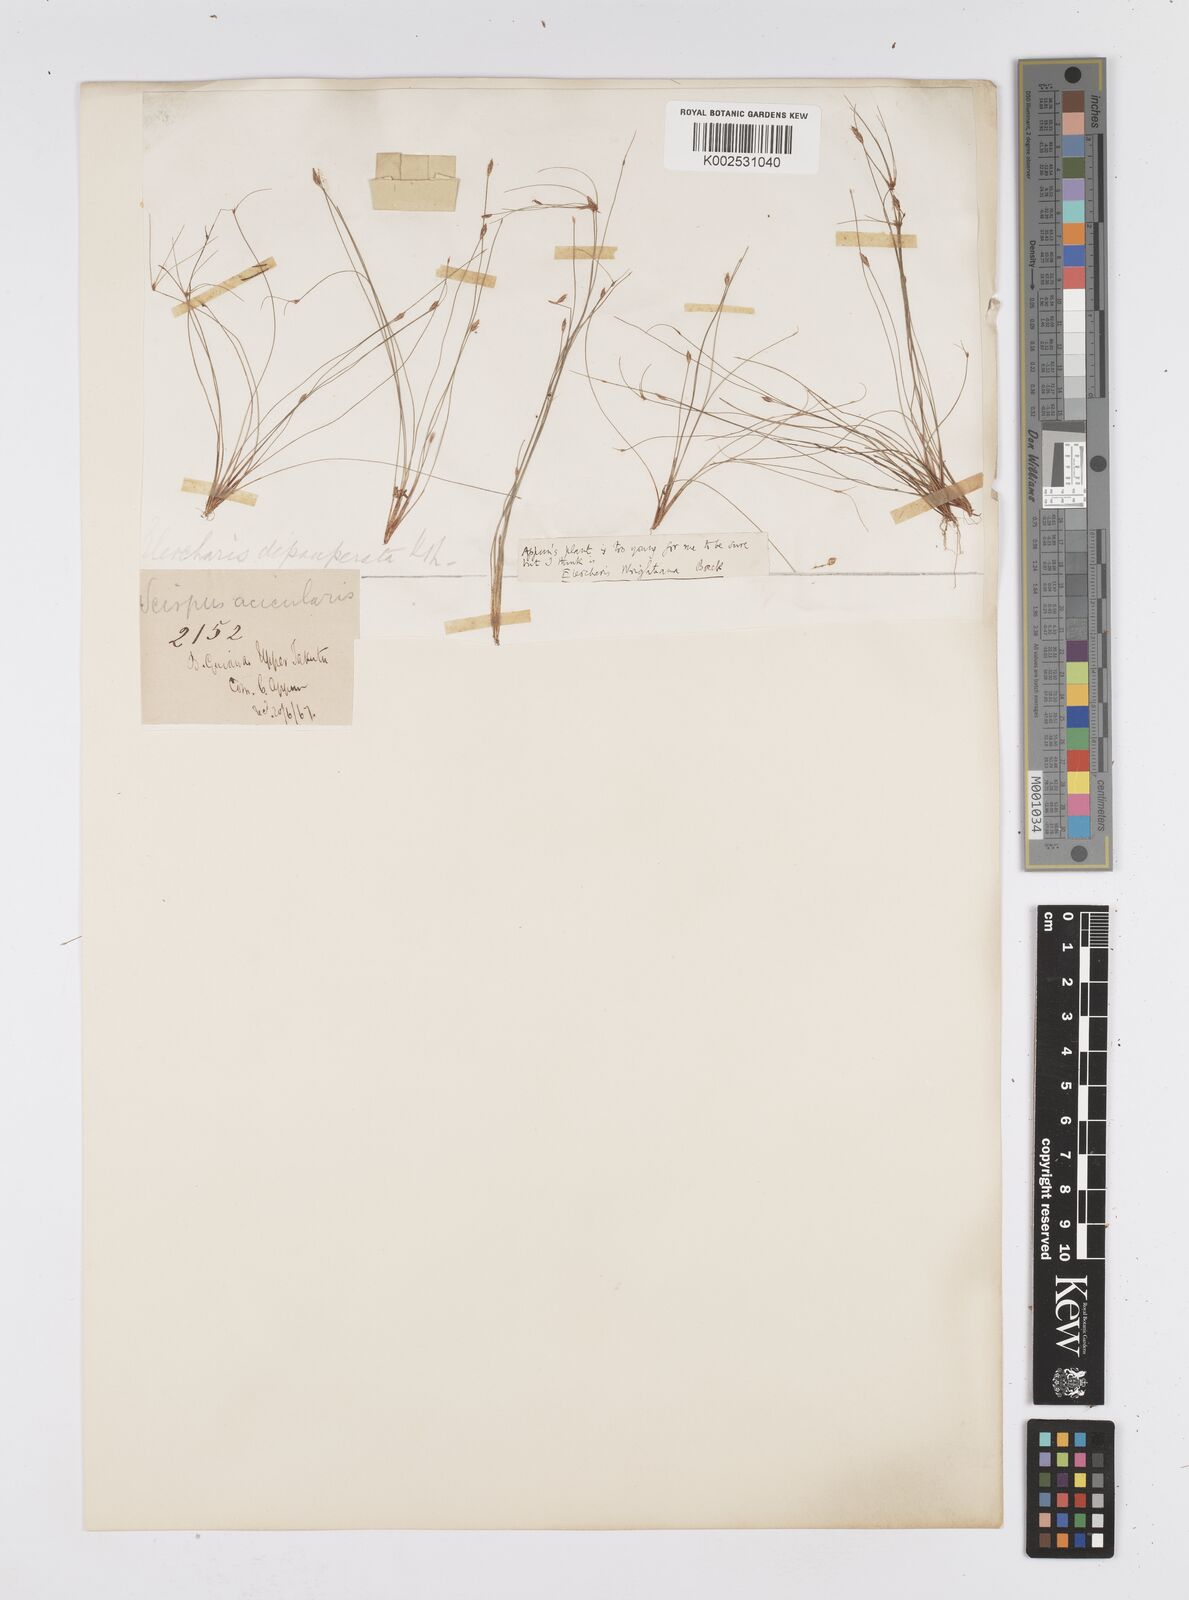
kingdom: Plantae
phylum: Tracheophyta
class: Liliopsida
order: Poales
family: Cyperaceae
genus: Eleocharis
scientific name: Eleocharis subfoliata
